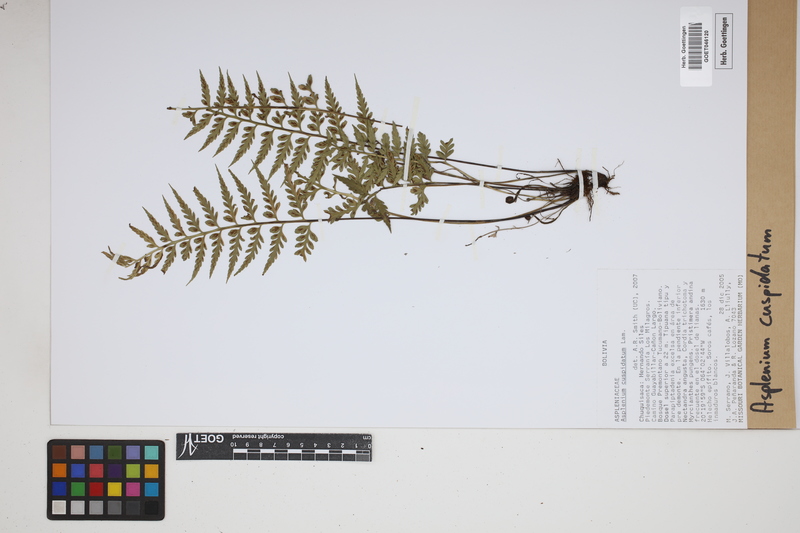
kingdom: Plantae
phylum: Tracheophyta
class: Polypodiopsida
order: Polypodiales
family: Aspleniaceae
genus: Asplenium
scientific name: Asplenium cuspidatum
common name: Eared spleenwort
